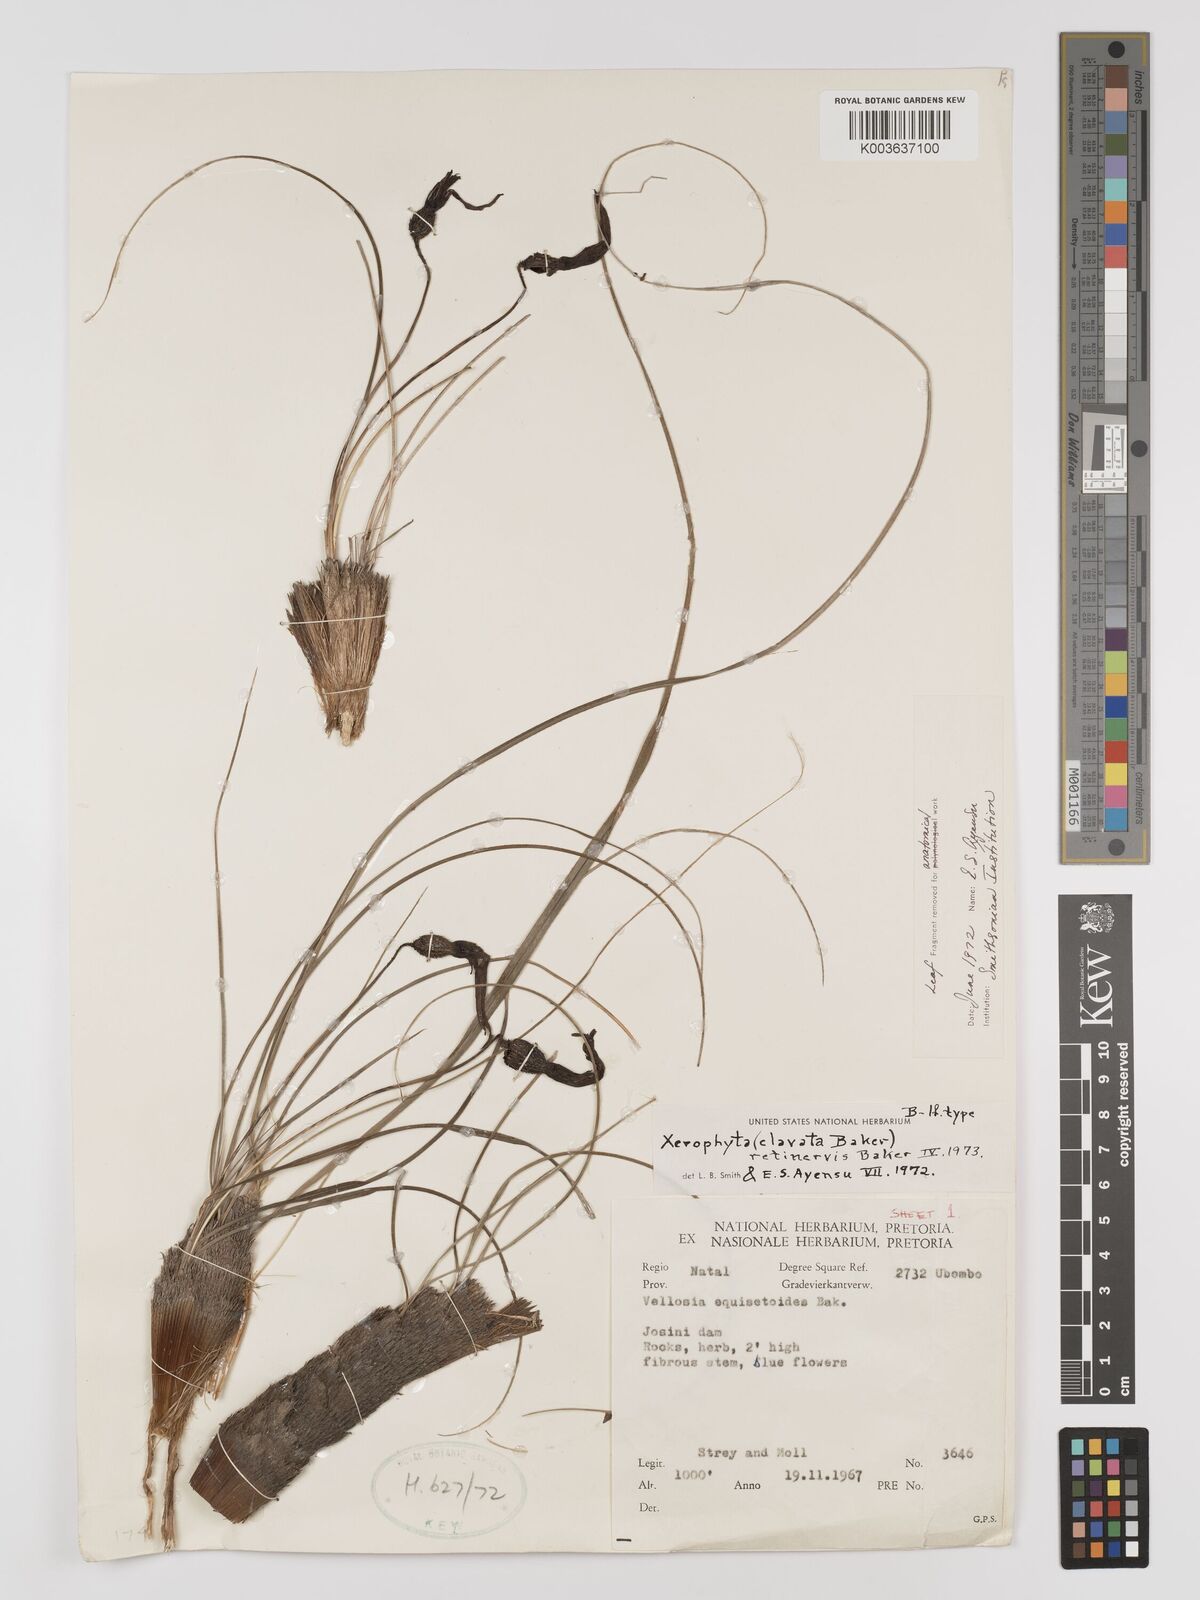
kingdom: Plantae
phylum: Tracheophyta
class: Liliopsida
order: Pandanales
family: Velloziaceae
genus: Xerophyta
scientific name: Xerophyta retinervis
